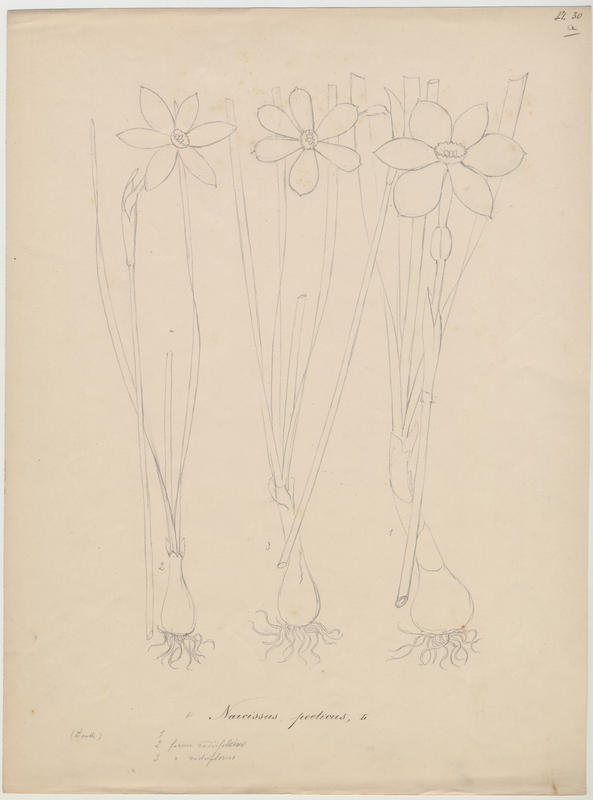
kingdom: Plantae
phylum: Tracheophyta
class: Liliopsida
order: Asparagales
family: Amaryllidaceae
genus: Narcissus
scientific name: Narcissus poeticus
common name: Pheasant's-eye daffodil
